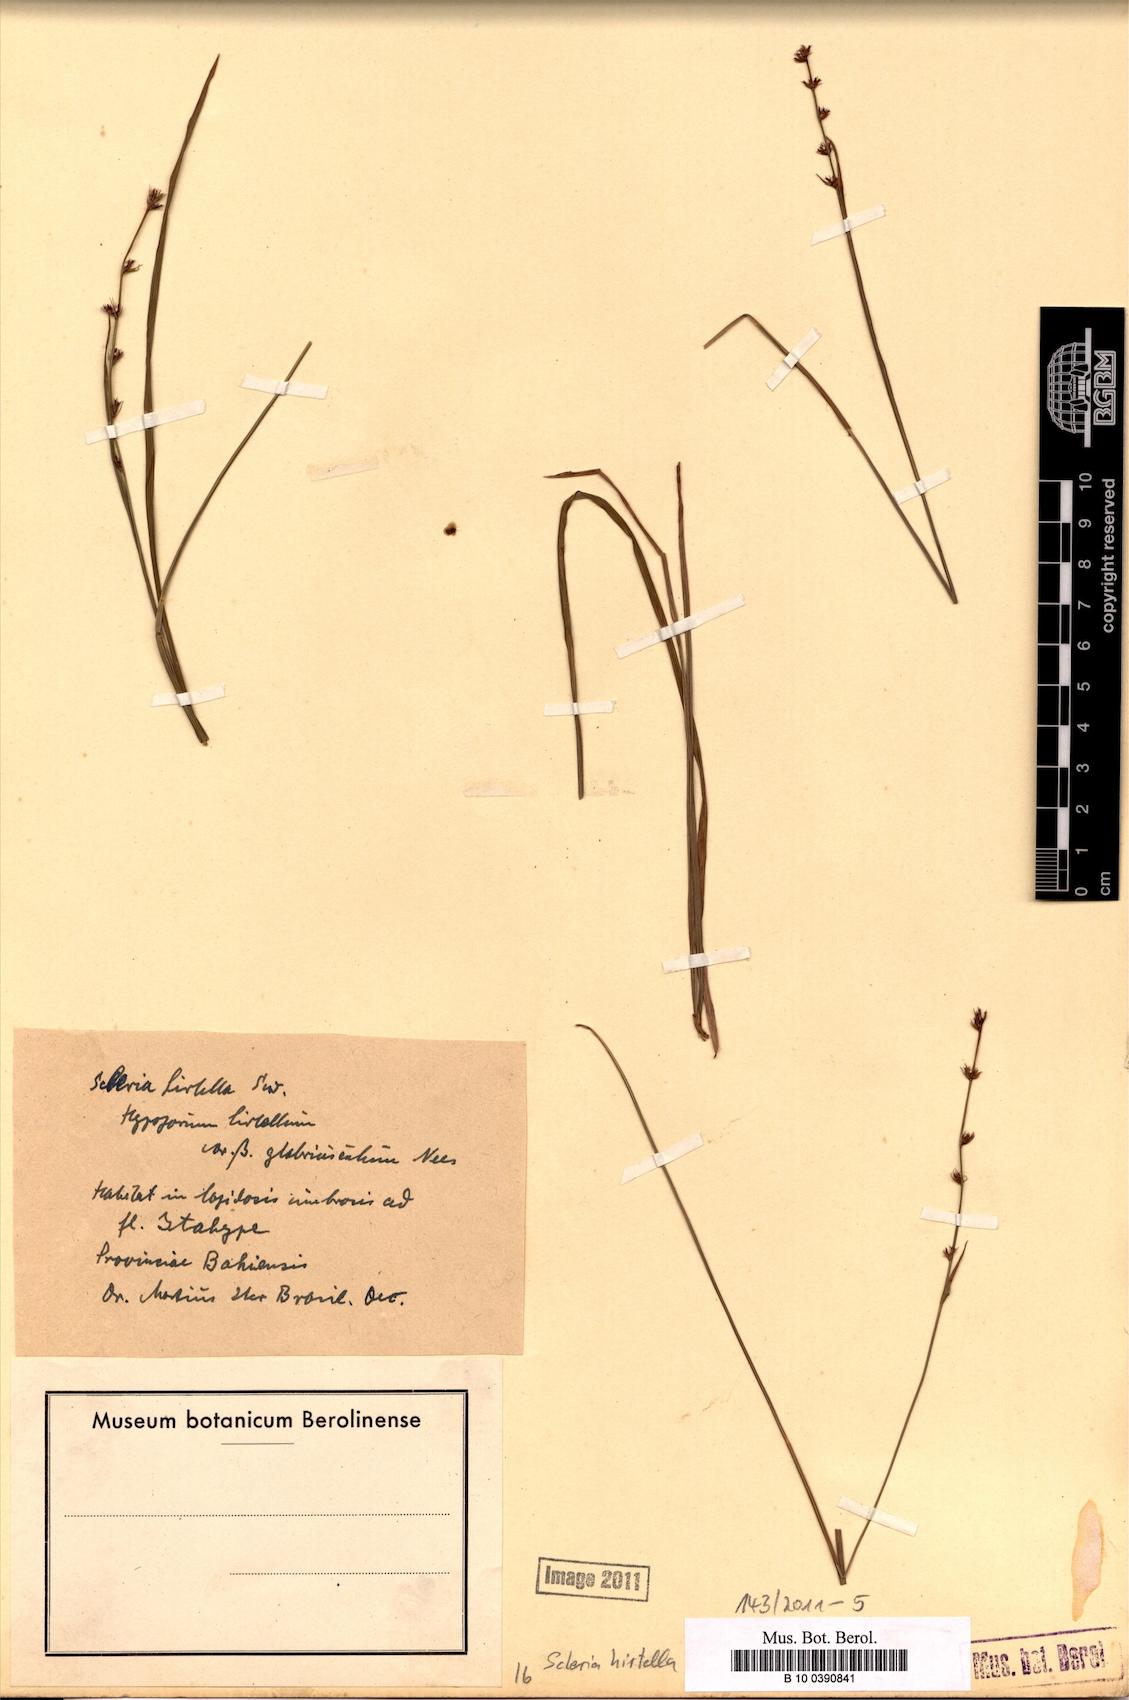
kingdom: Plantae
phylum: Tracheophyta
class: Liliopsida
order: Poales
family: Cyperaceae
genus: Scleria
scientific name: Scleria hirtella
